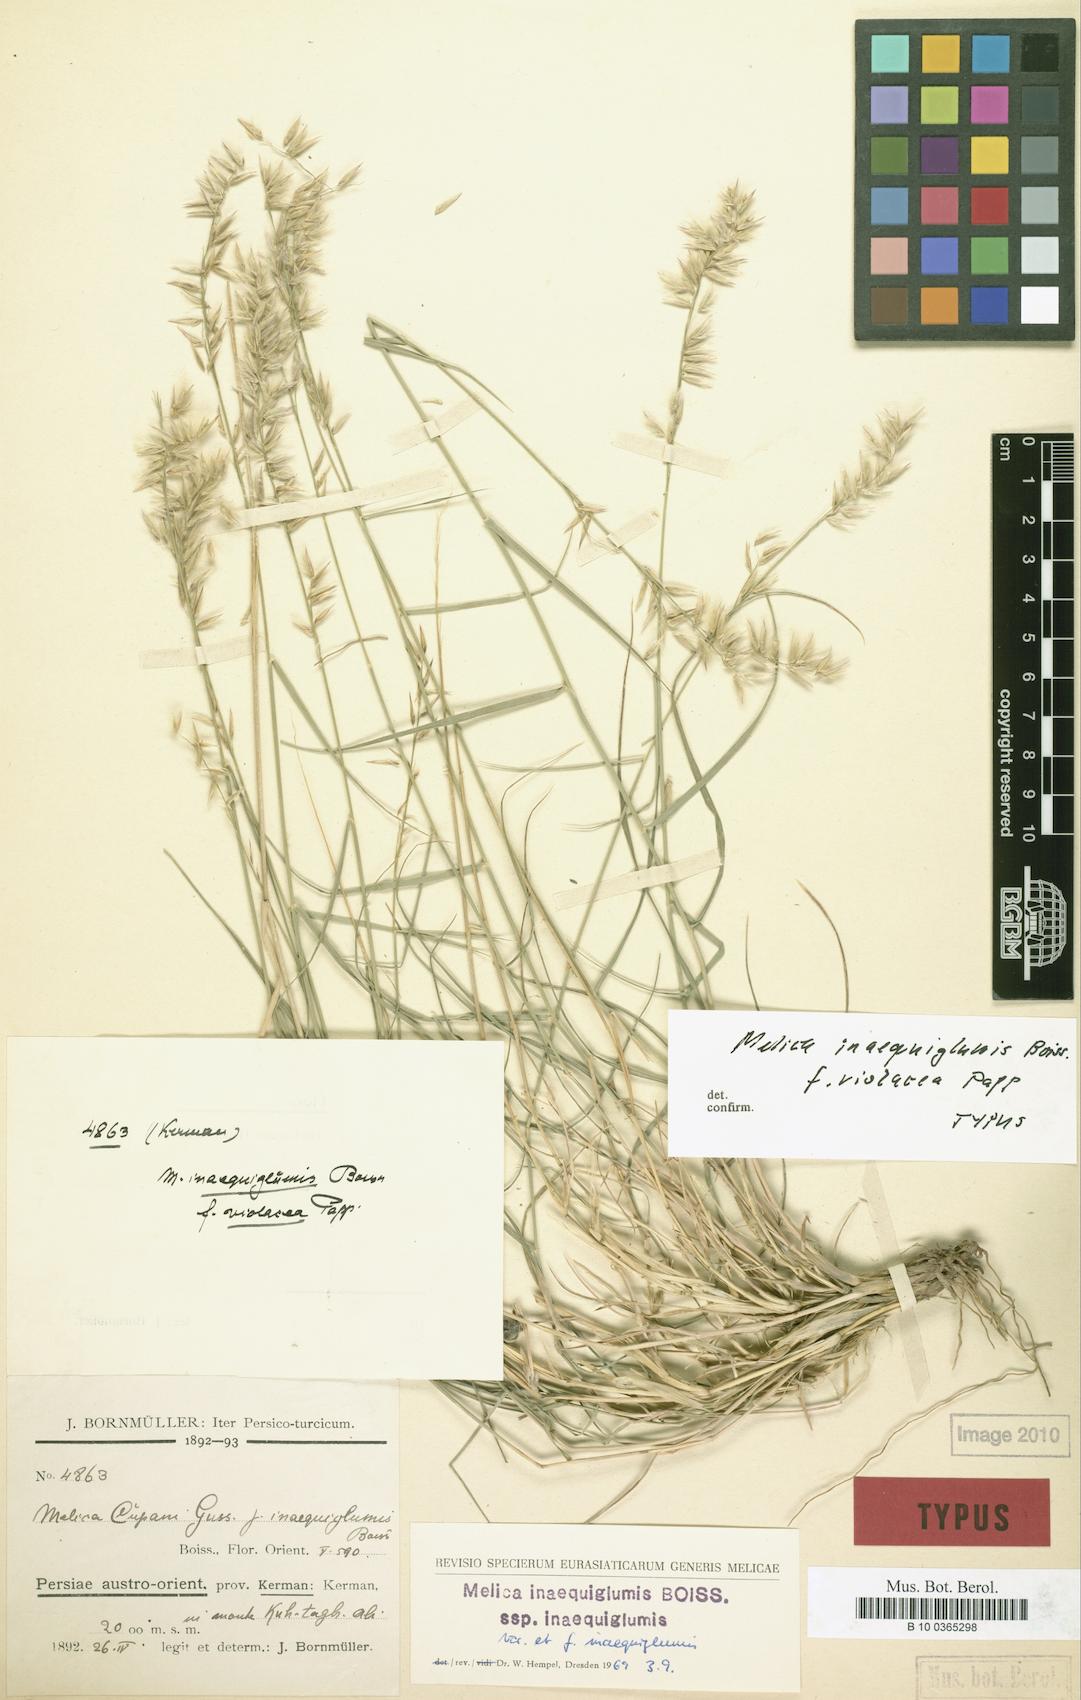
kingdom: Plantae
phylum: Tracheophyta
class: Liliopsida
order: Poales
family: Poaceae
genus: Melica
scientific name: Melica persica
